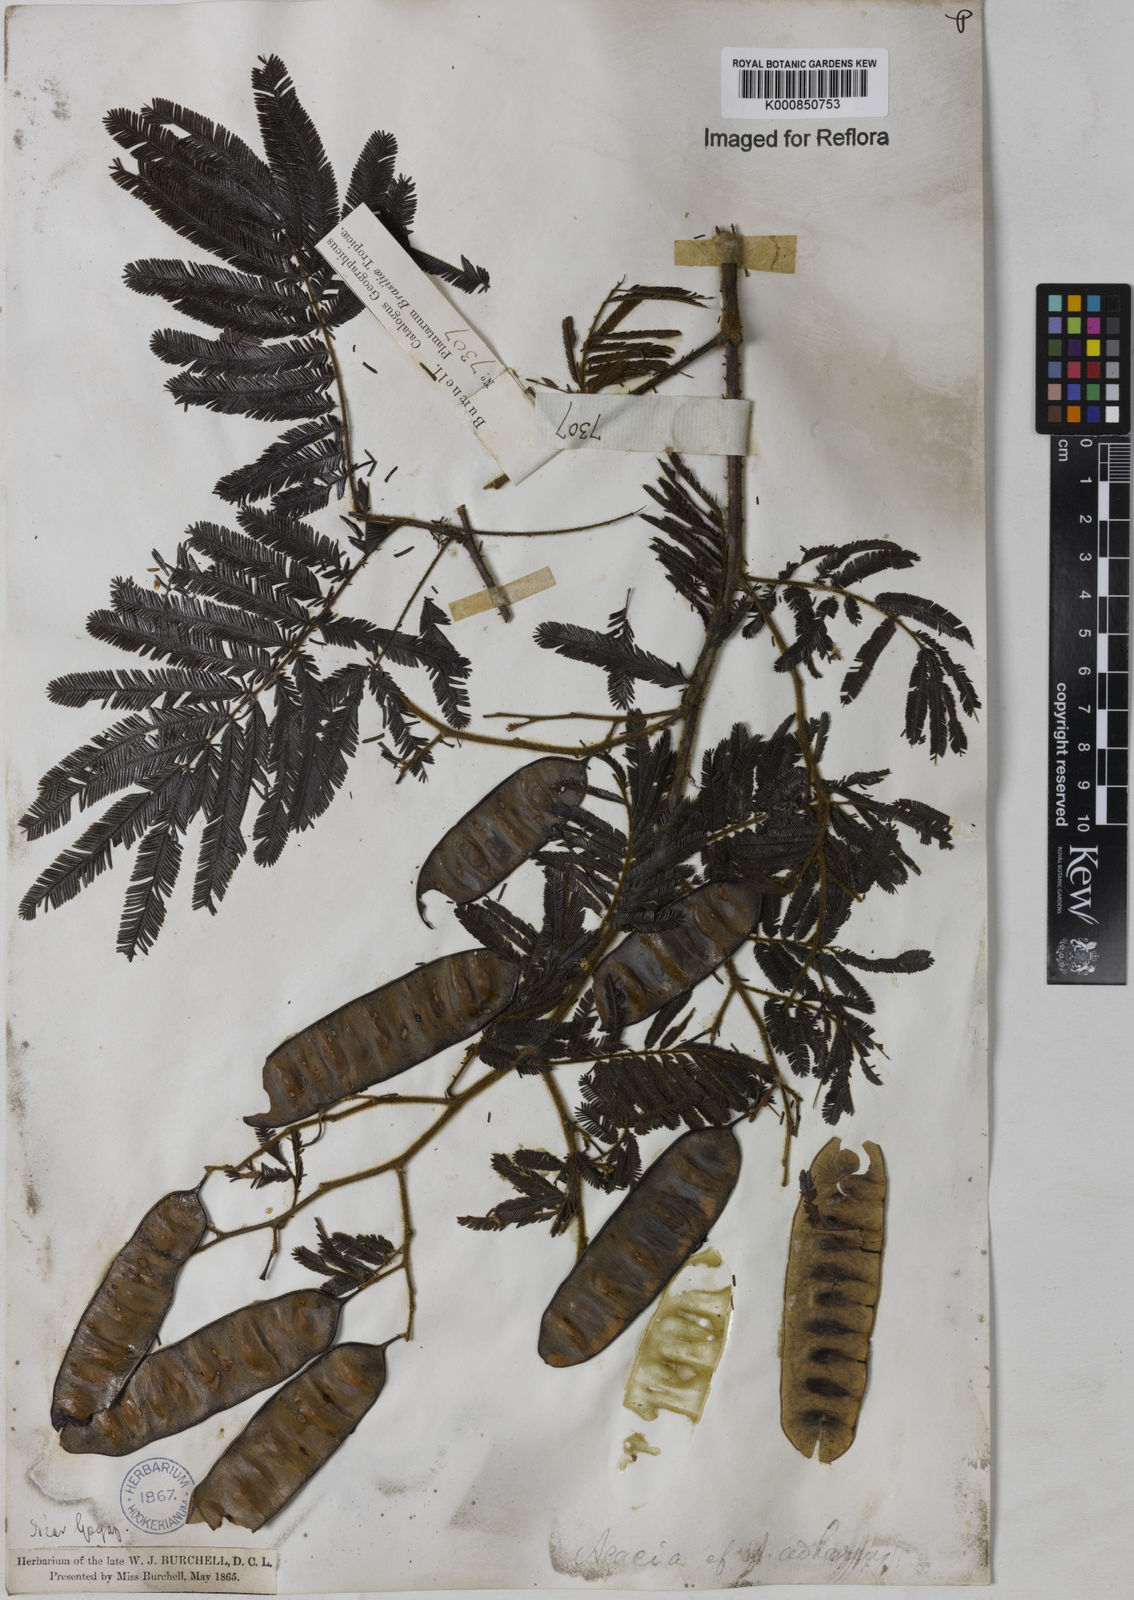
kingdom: Plantae
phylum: Tracheophyta
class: Magnoliopsida
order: Fabales
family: Fabaceae
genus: Senegalia
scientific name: Senegalia martiusiana
